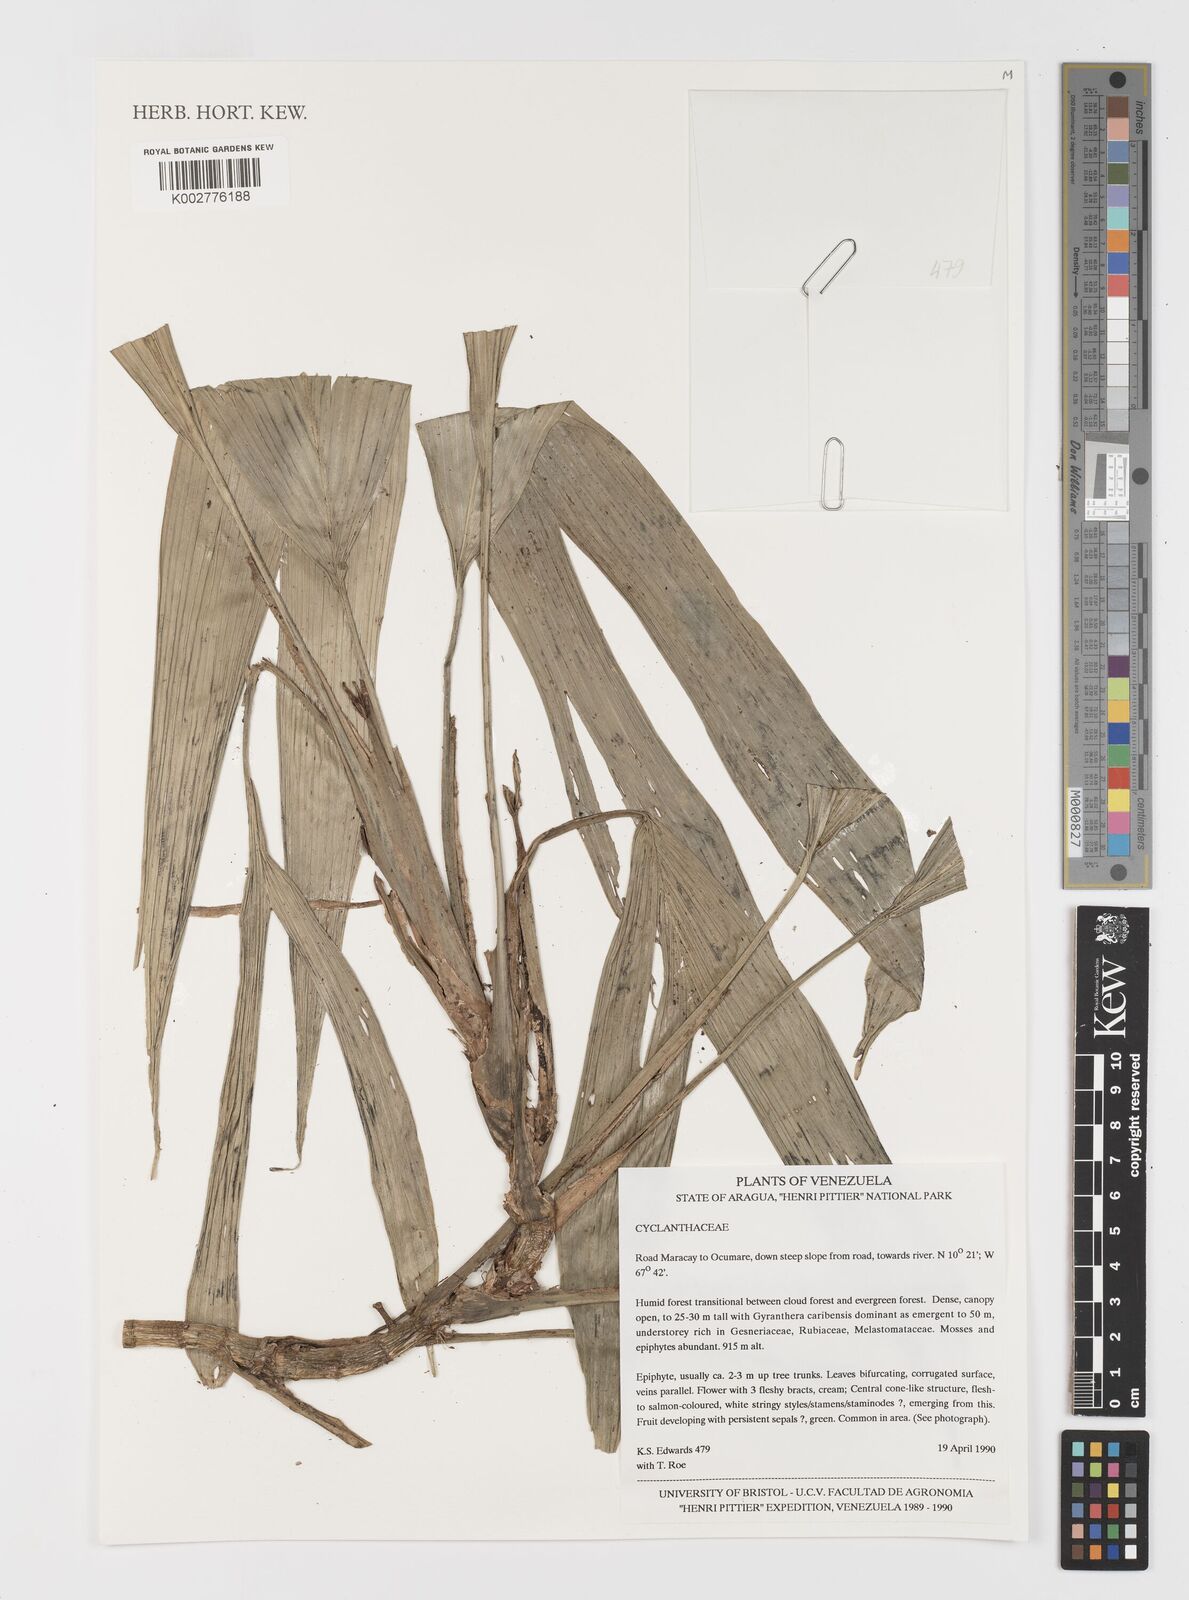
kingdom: Plantae
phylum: Tracheophyta
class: Liliopsida
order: Pandanales
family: Cyclanthaceae
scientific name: Cyclanthaceae
